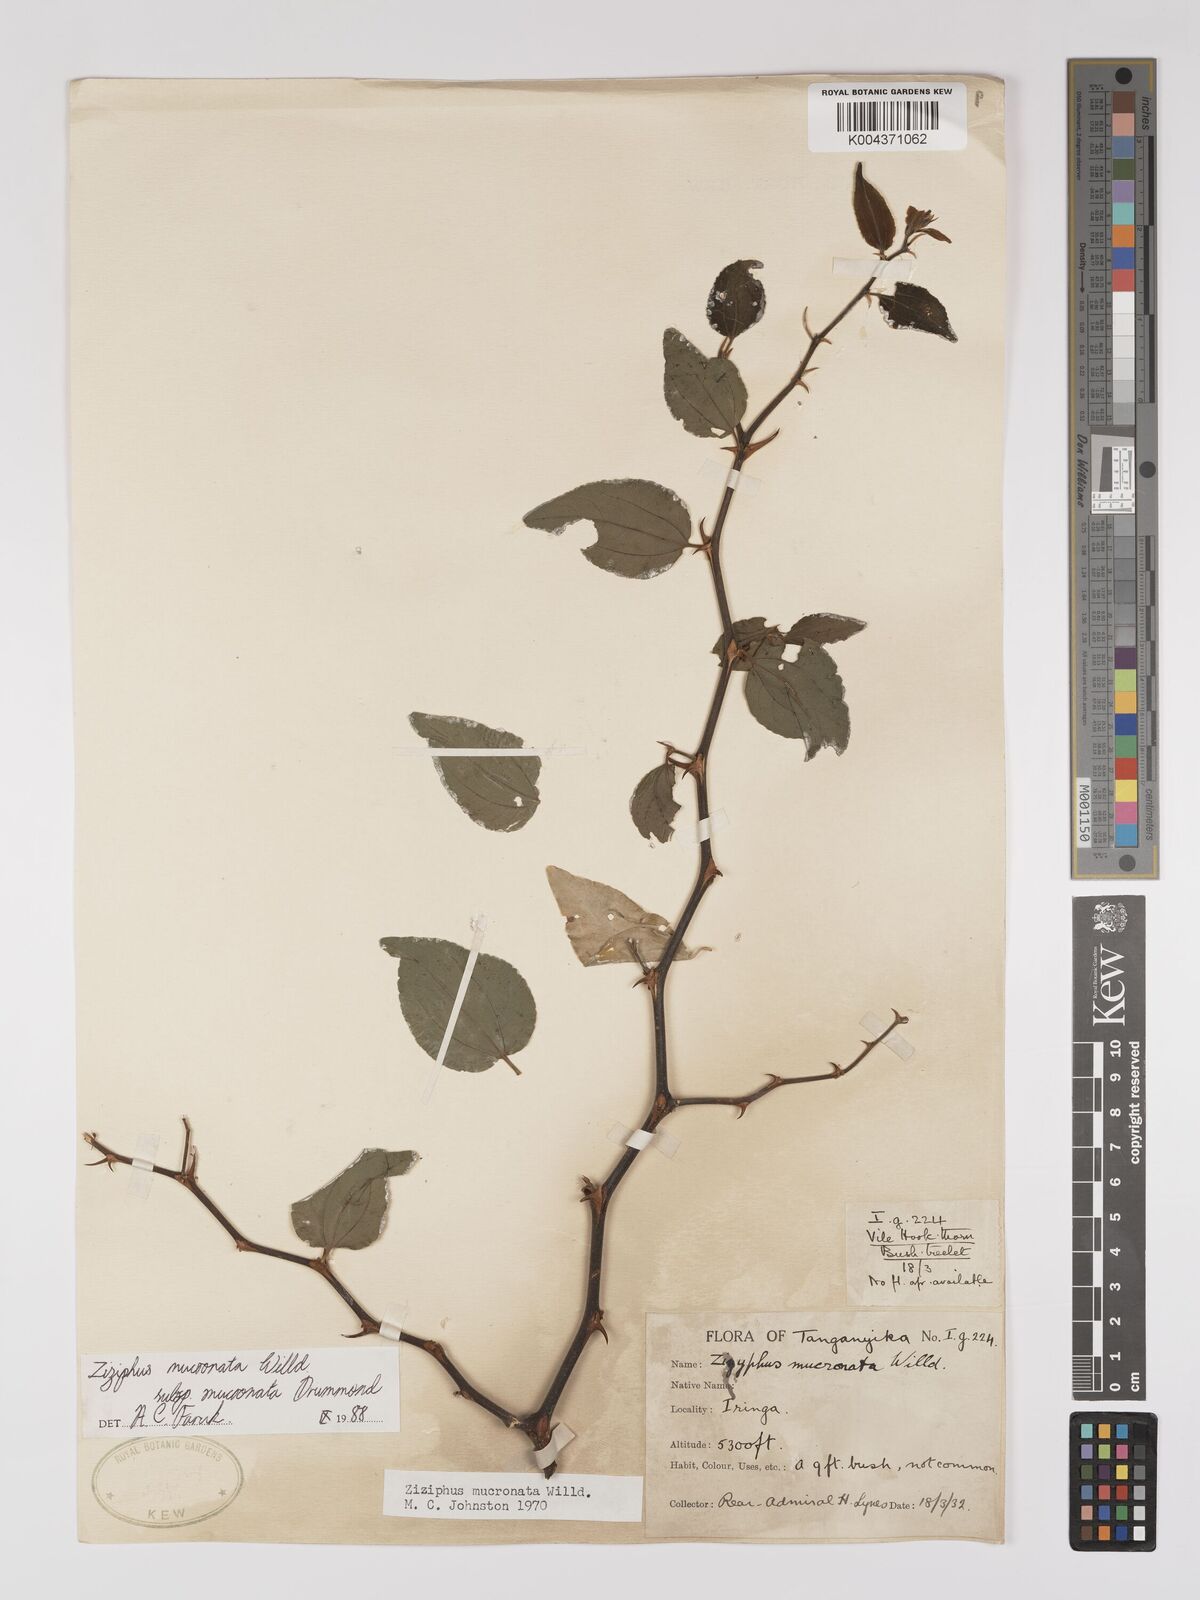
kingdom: Plantae
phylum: Tracheophyta
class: Magnoliopsida
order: Rosales
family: Rhamnaceae
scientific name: Rhamnaceae
